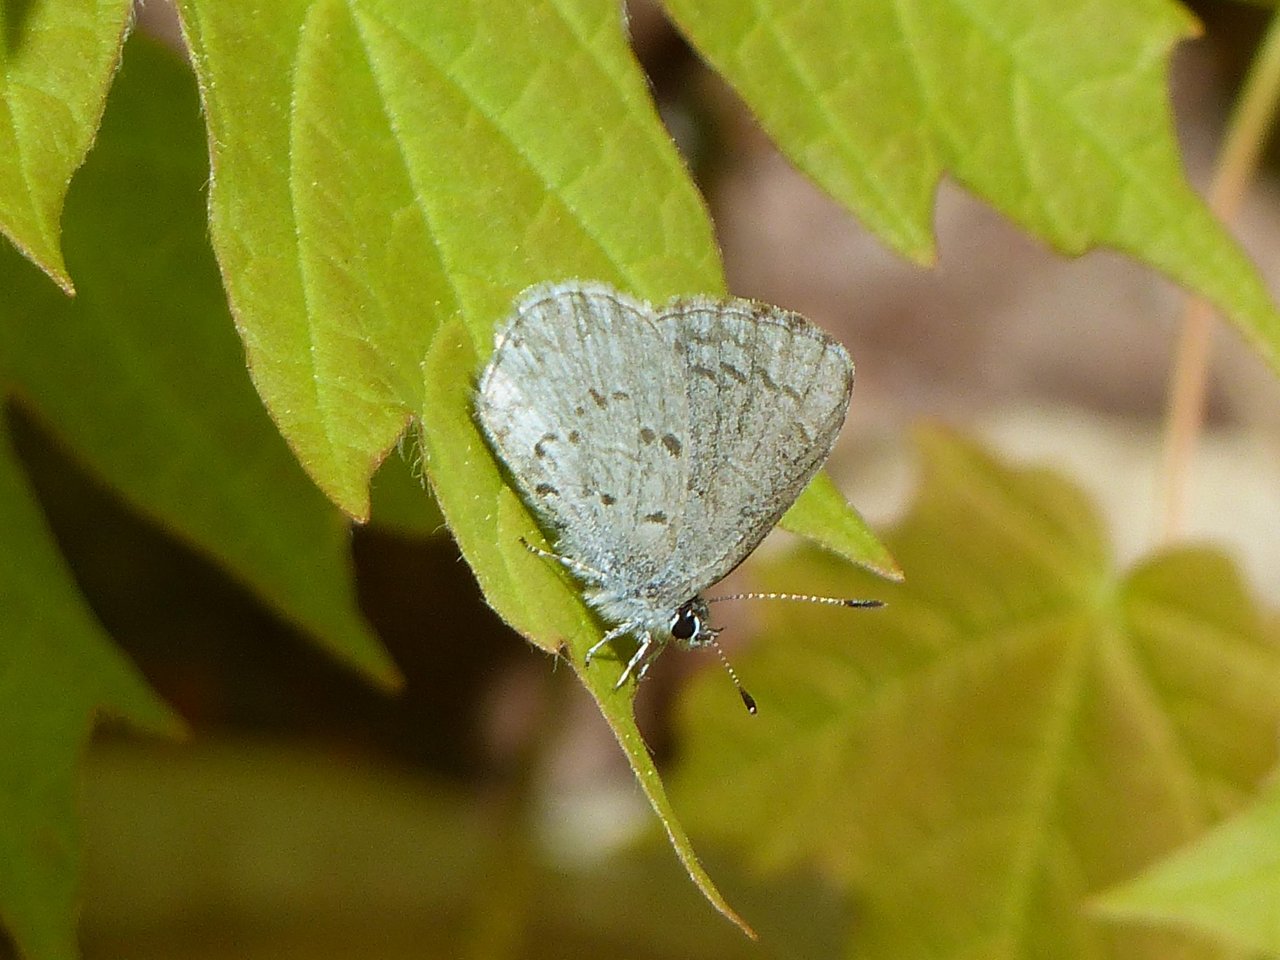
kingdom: Animalia
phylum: Arthropoda
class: Insecta
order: Lepidoptera
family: Lycaenidae
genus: Celastrina
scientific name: Celastrina lucia
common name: Northern Spring Azure
